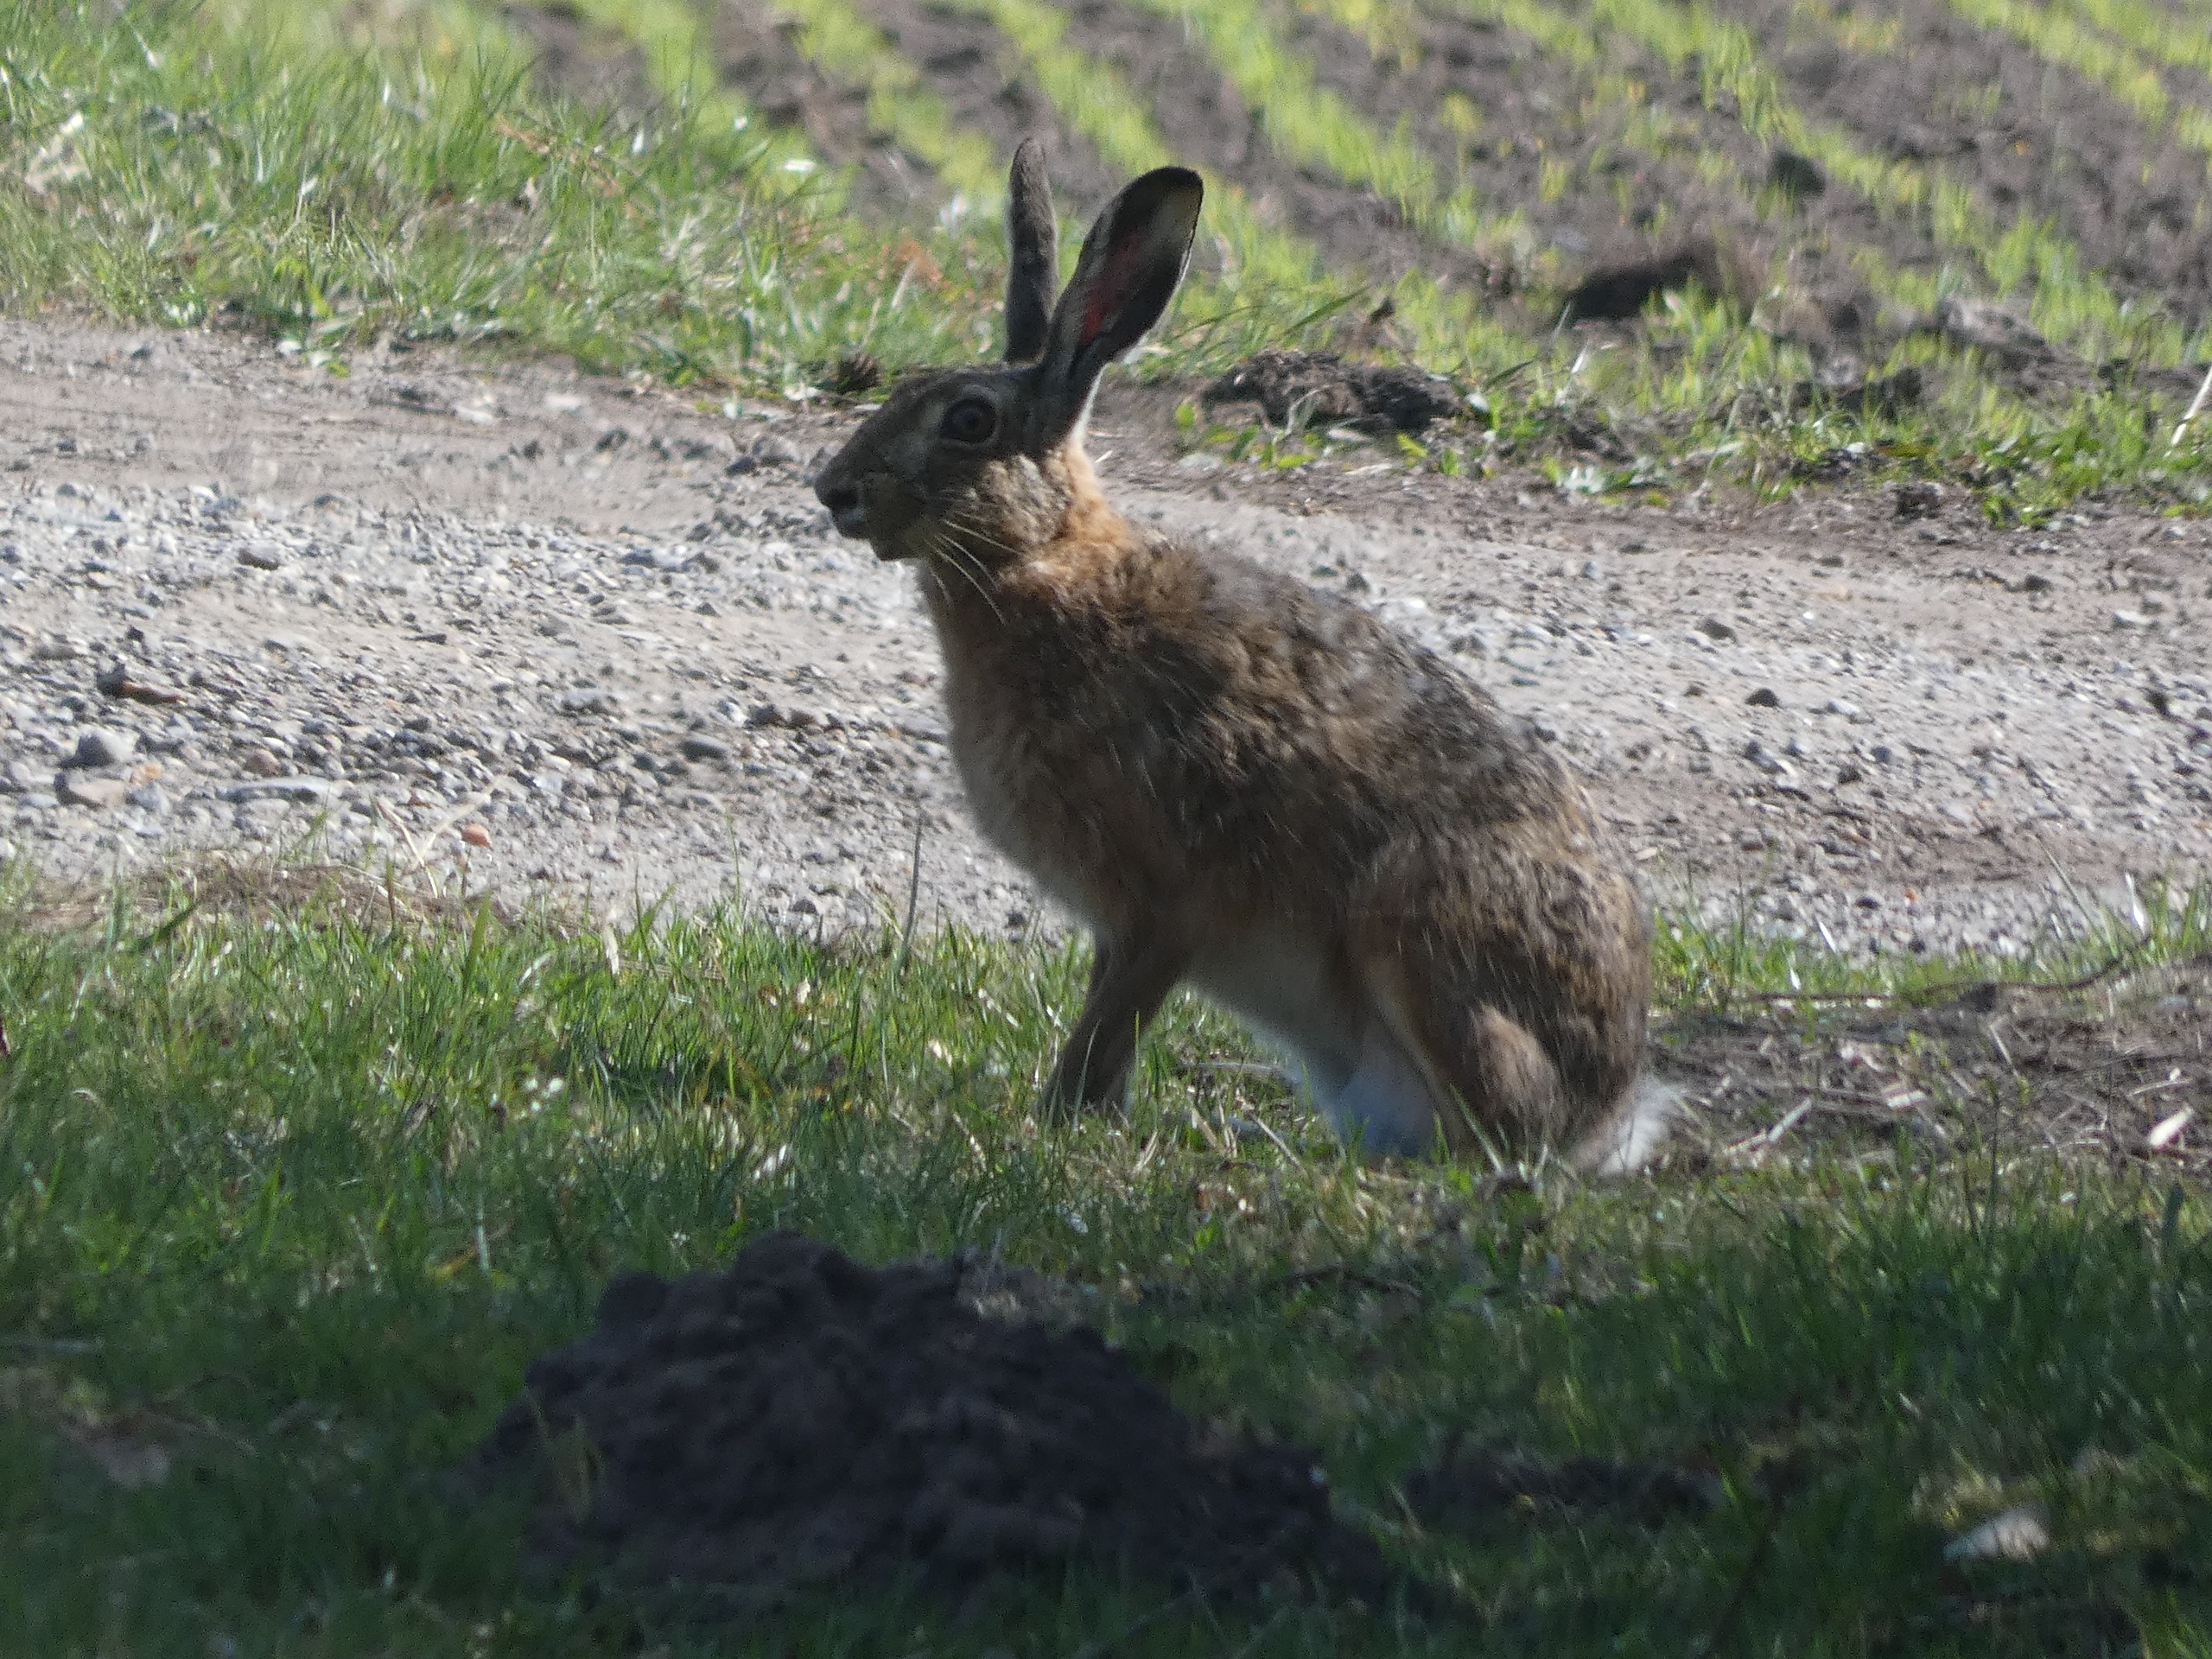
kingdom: Animalia
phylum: Chordata
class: Mammalia
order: Lagomorpha
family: Leporidae
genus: Lepus
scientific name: Lepus europaeus
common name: Hare
